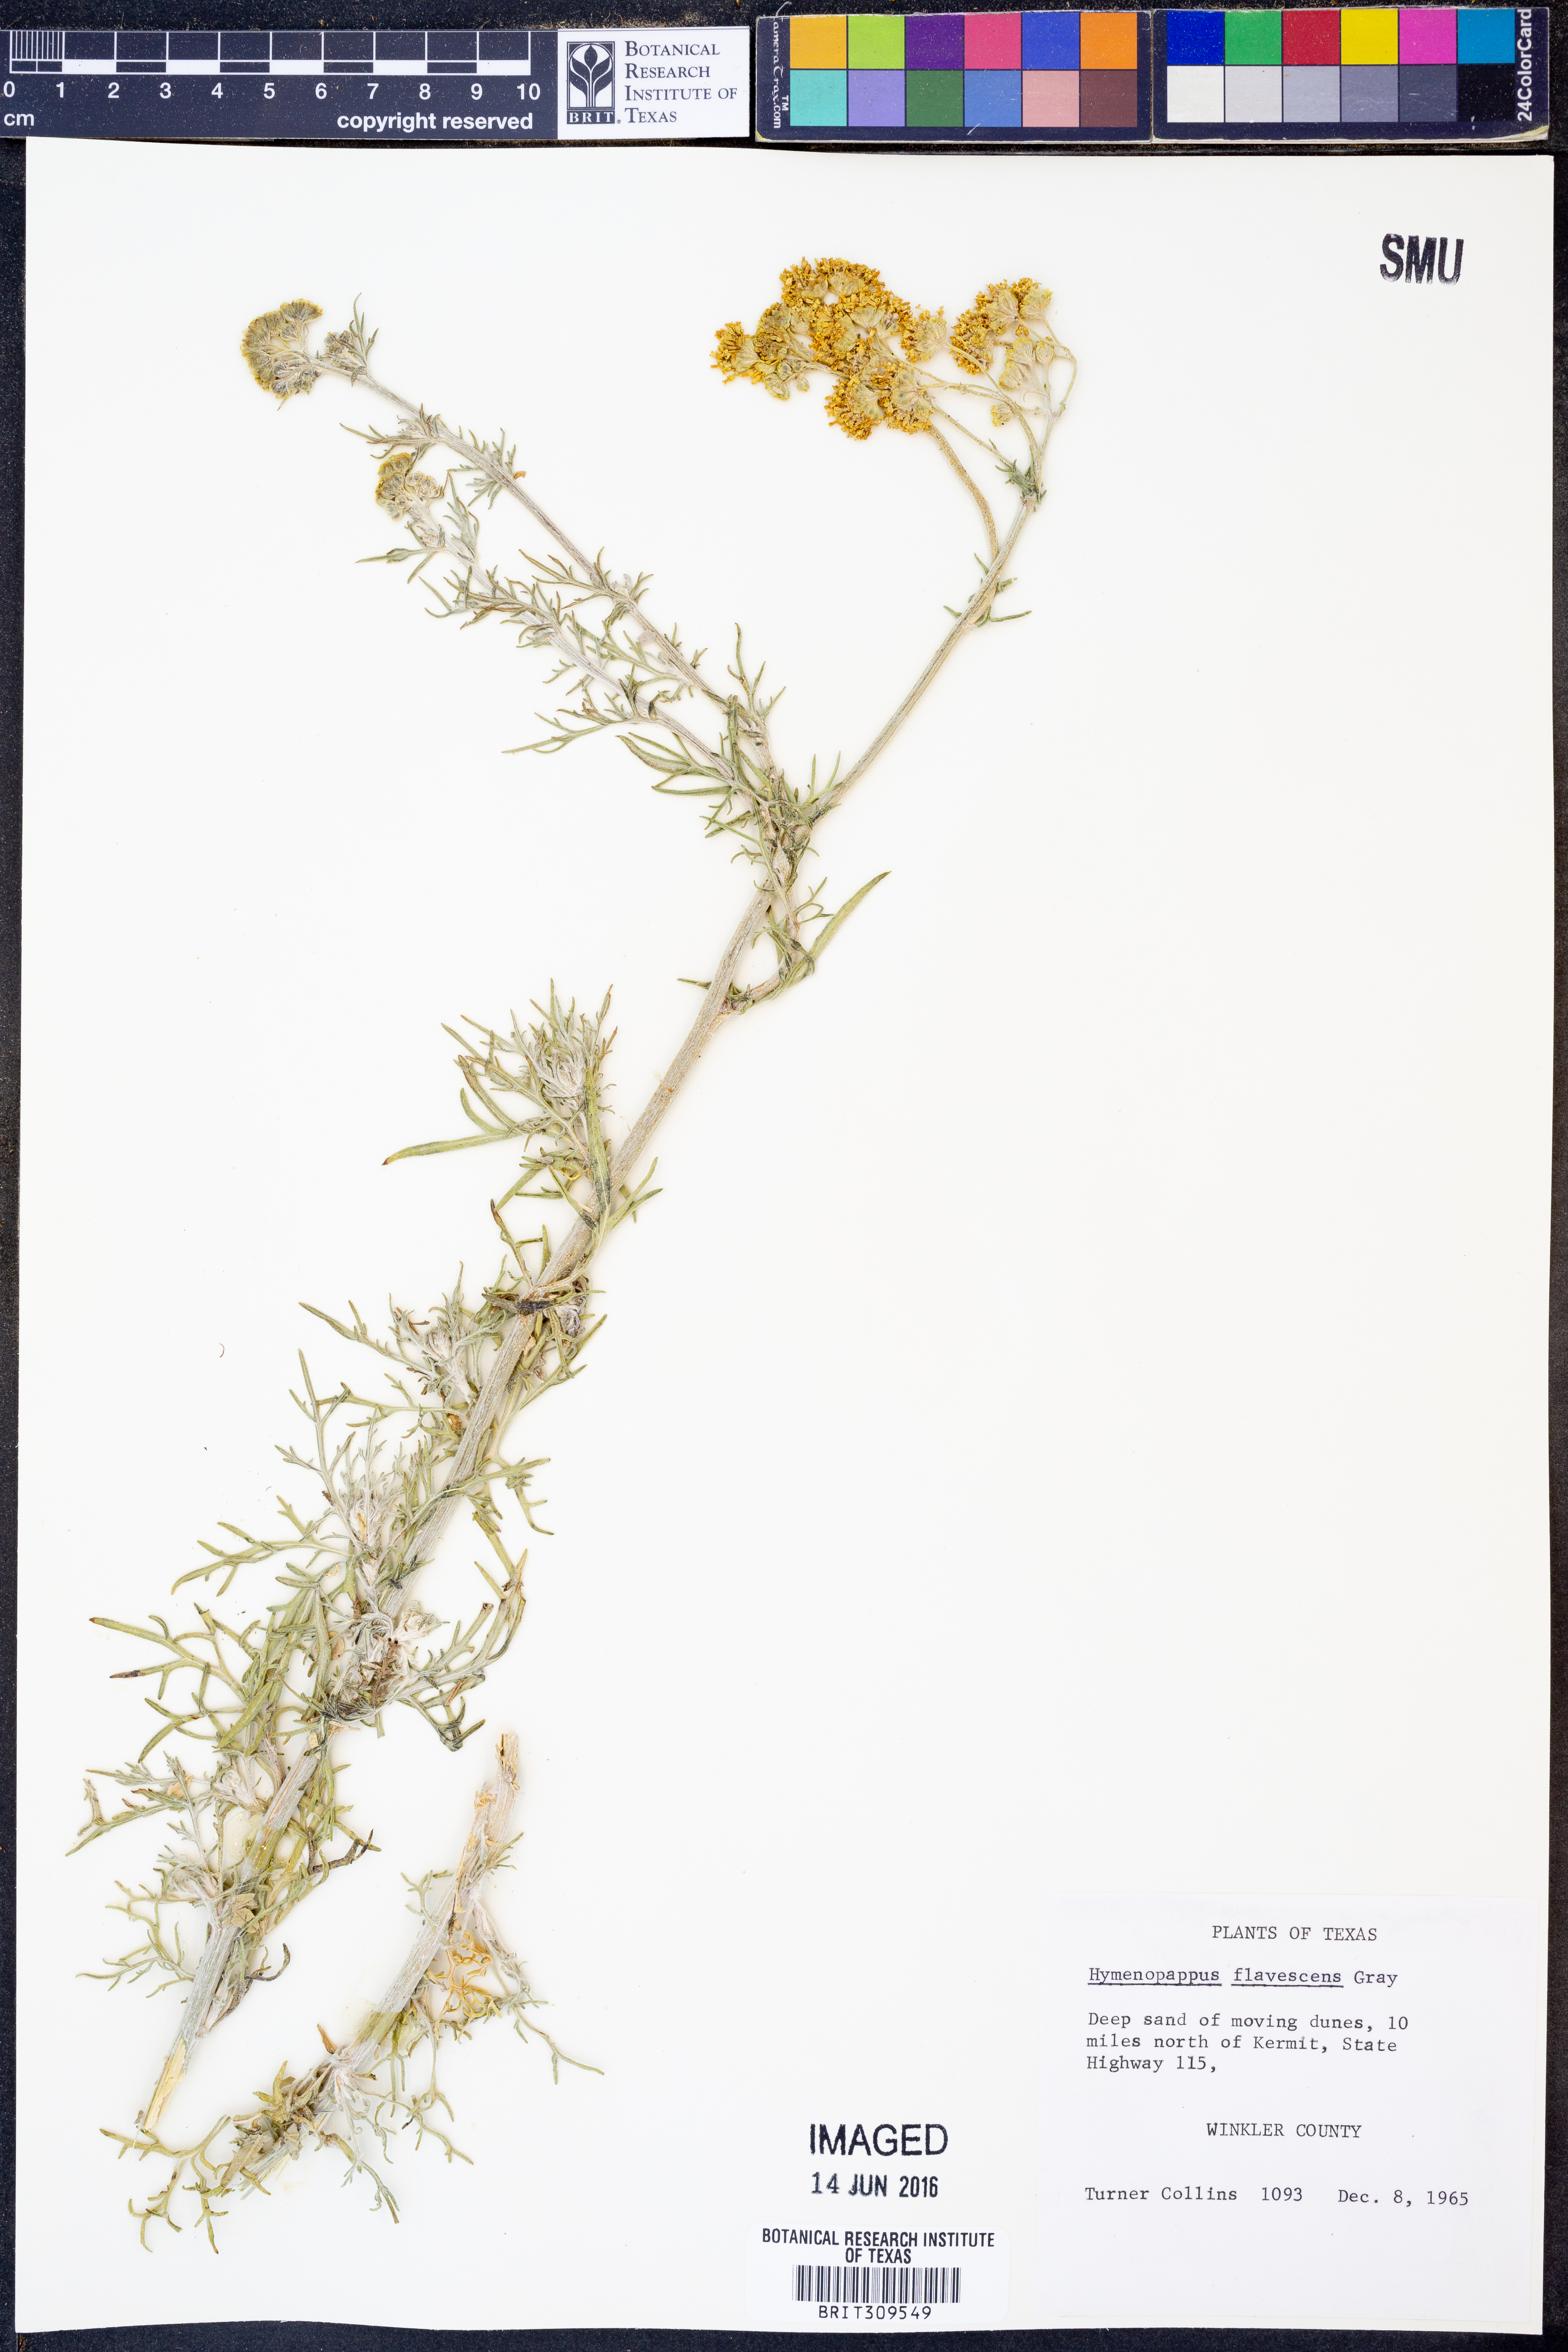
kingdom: Plantae
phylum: Tracheophyta
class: Magnoliopsida
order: Asterales
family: Asteraceae
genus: Hymenopappus
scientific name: Hymenopappus flavescens
